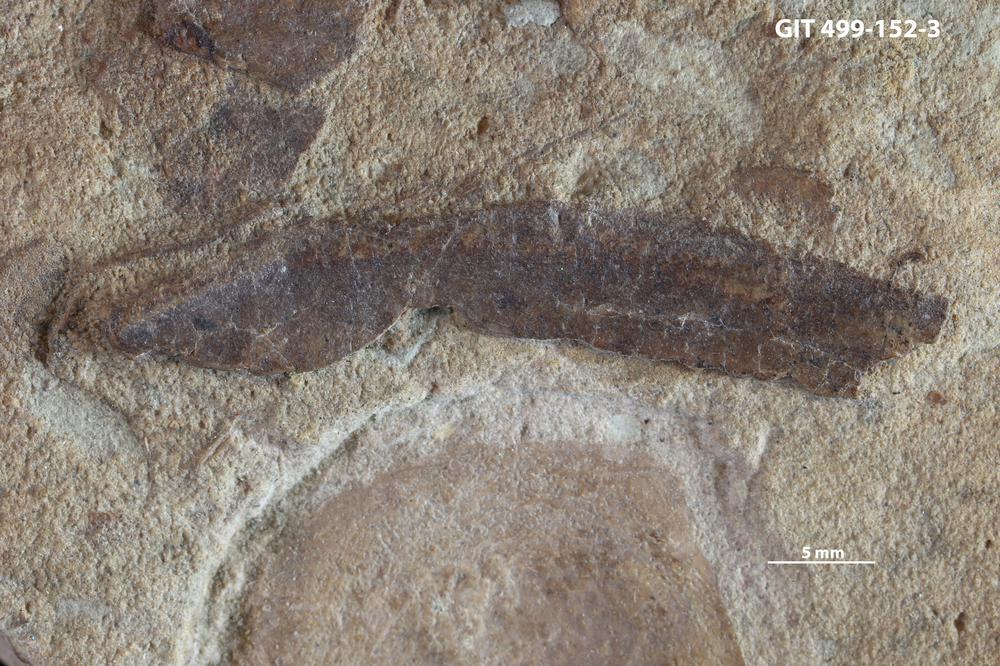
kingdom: Animalia
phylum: Chordata
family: Holoptychiidae
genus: Glyptolepis
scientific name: Glyptolepis
